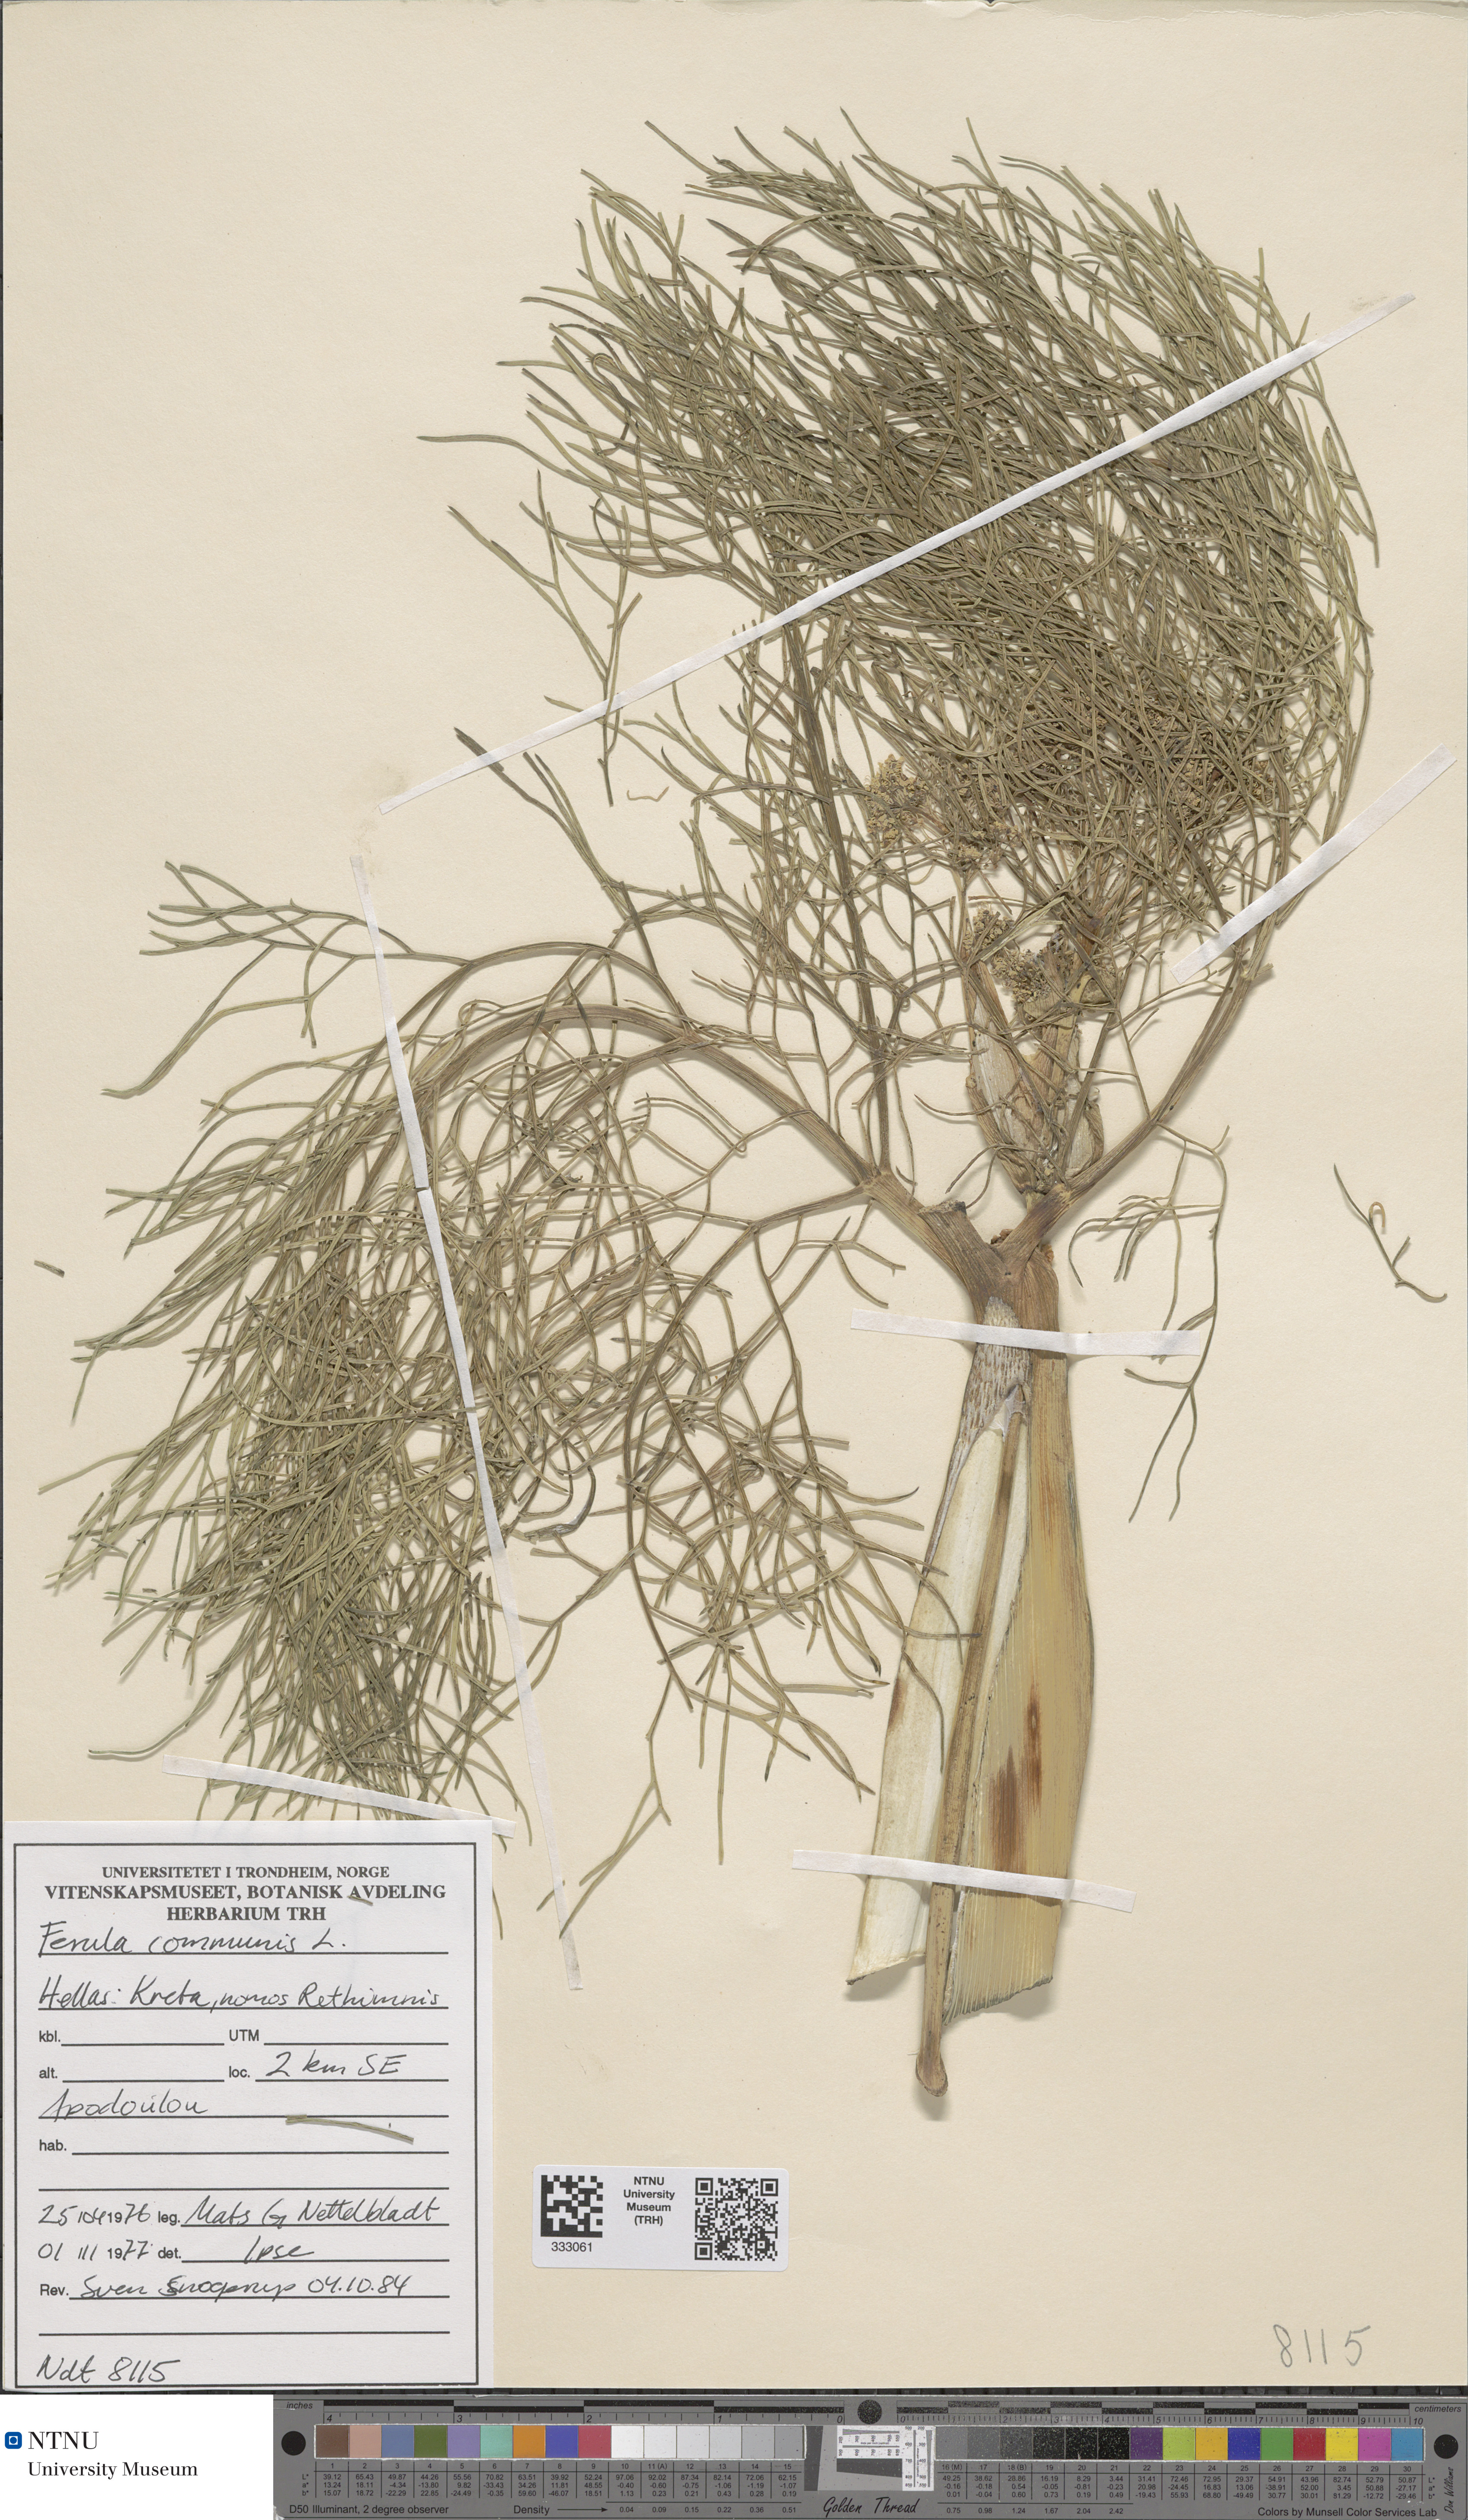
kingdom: Plantae
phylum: Tracheophyta
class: Magnoliopsida
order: Apiales
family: Apiaceae
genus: Ferula
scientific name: Ferula communis
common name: Giant fennel
